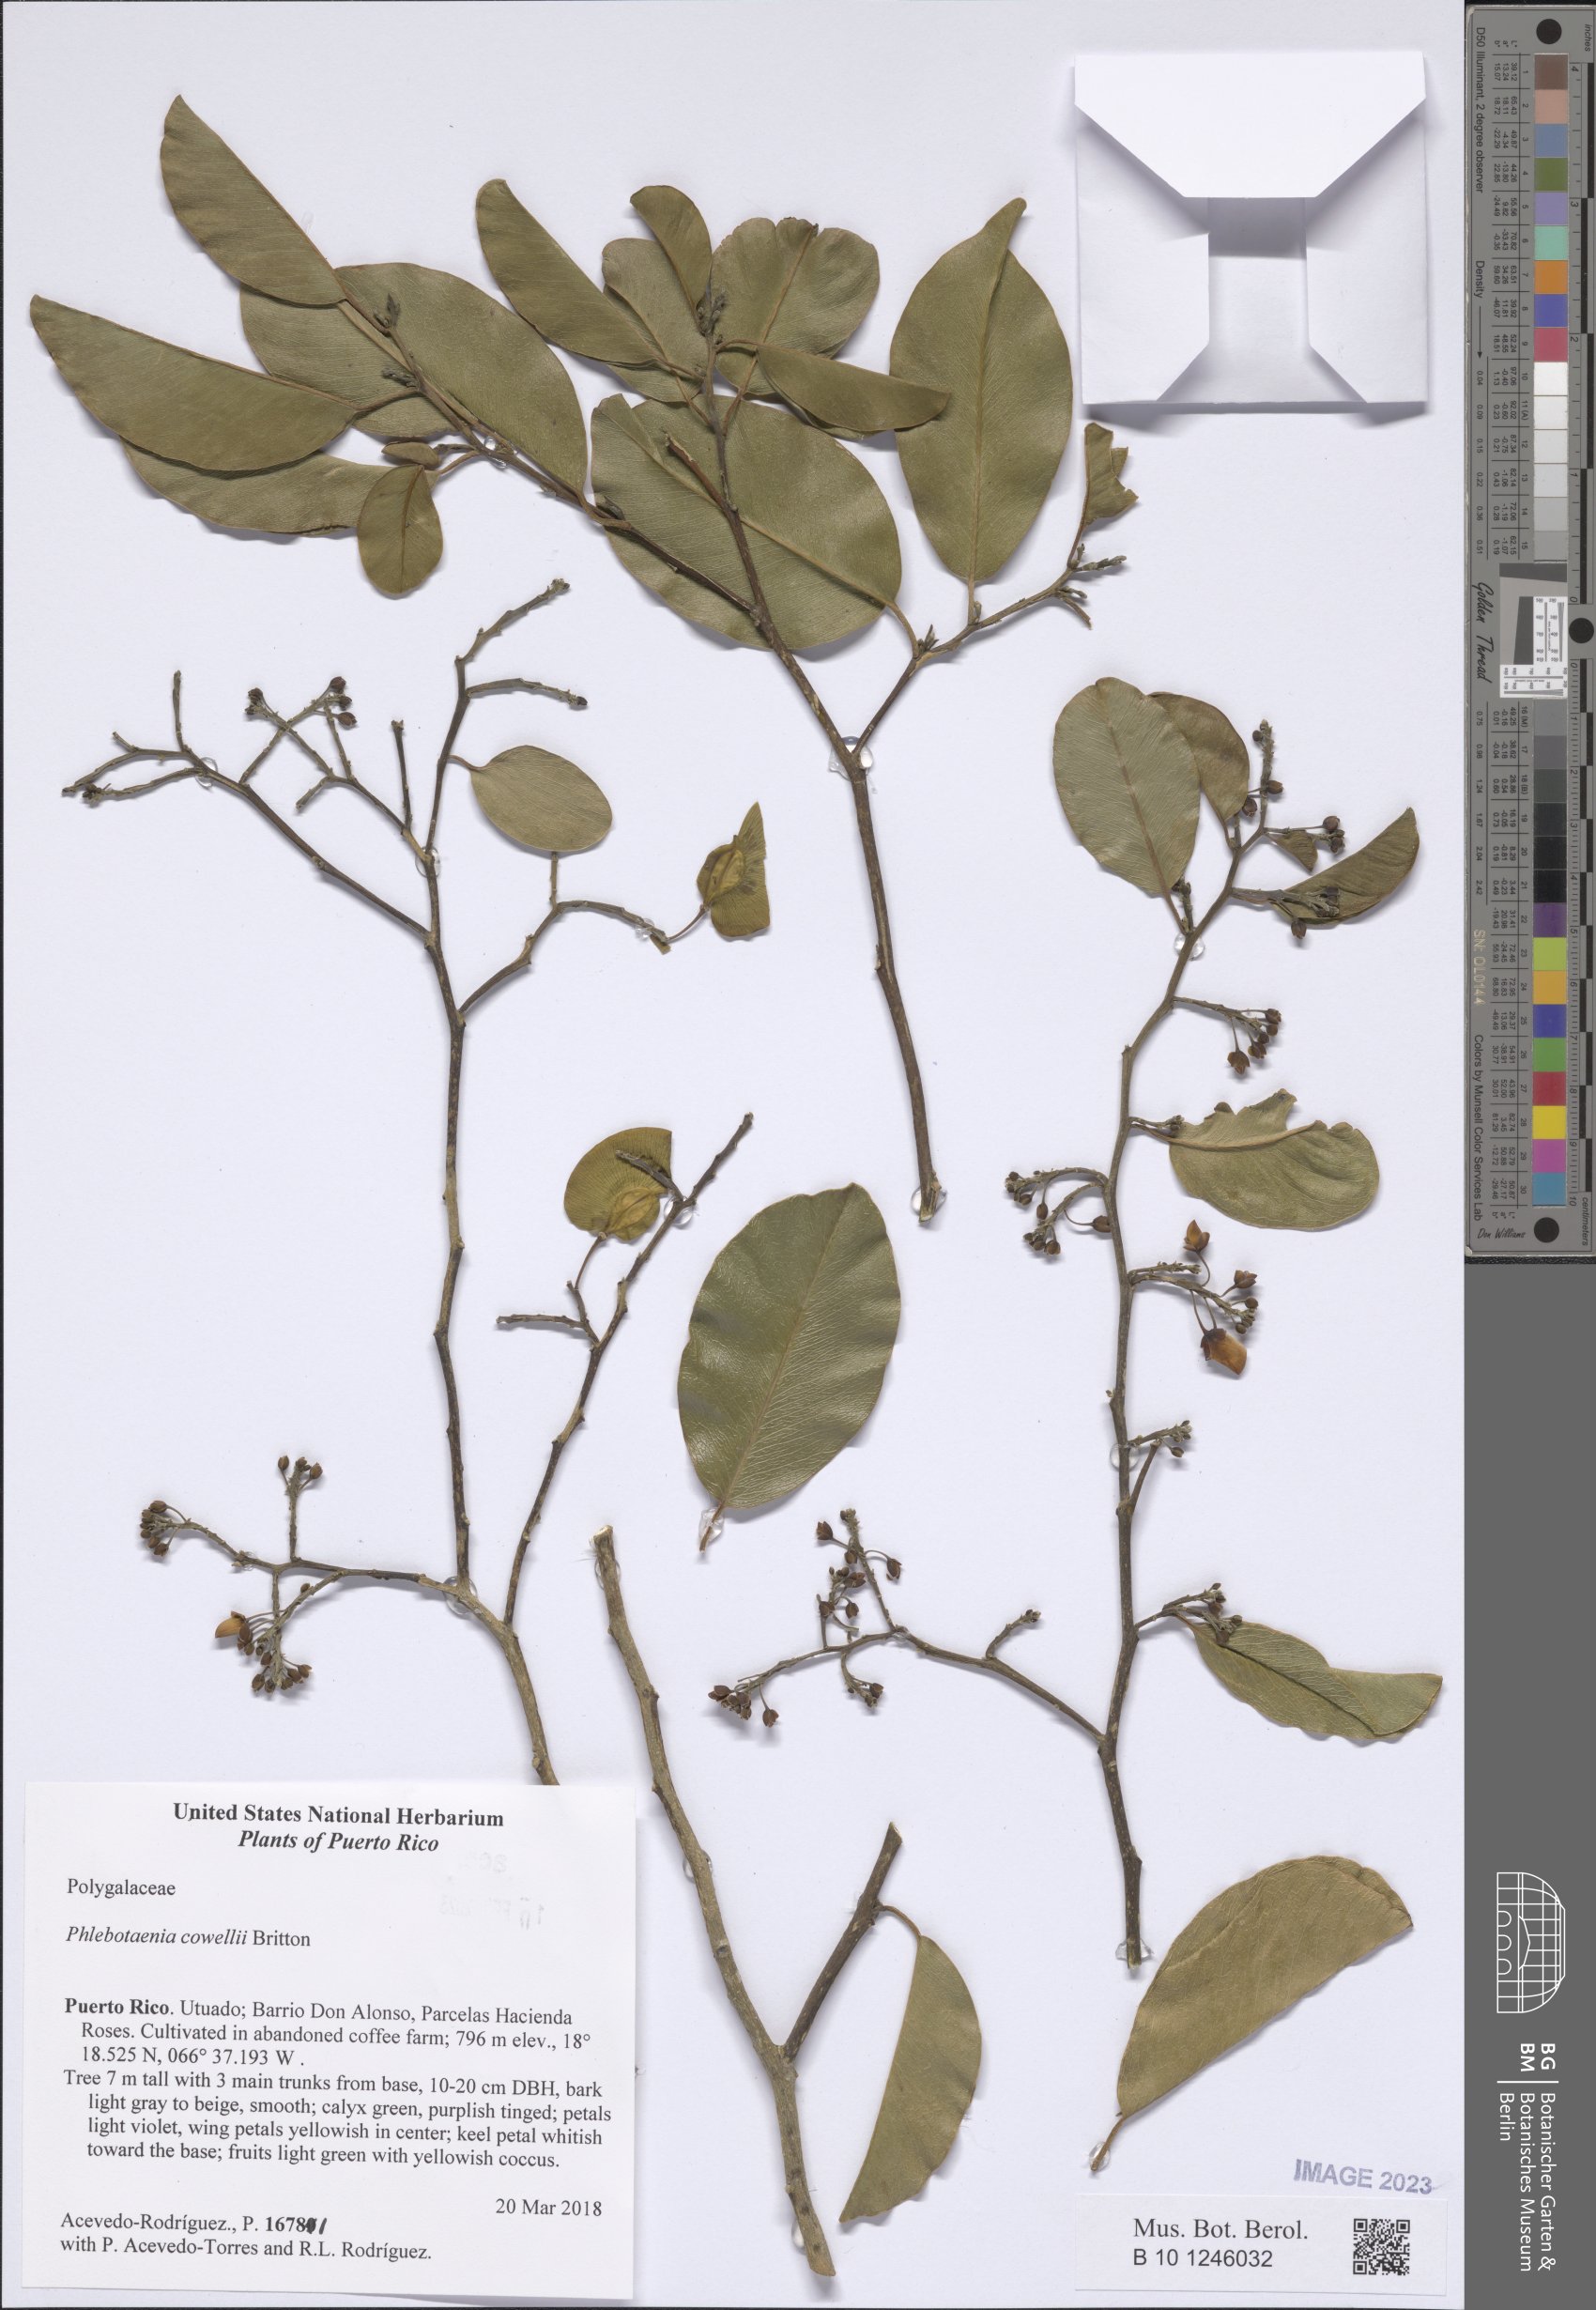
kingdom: Plantae
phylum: Tracheophyta
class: Magnoliopsida
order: Fabales
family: Polygalaceae
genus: Phlebotaenia
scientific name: Phlebotaenia cowellii
